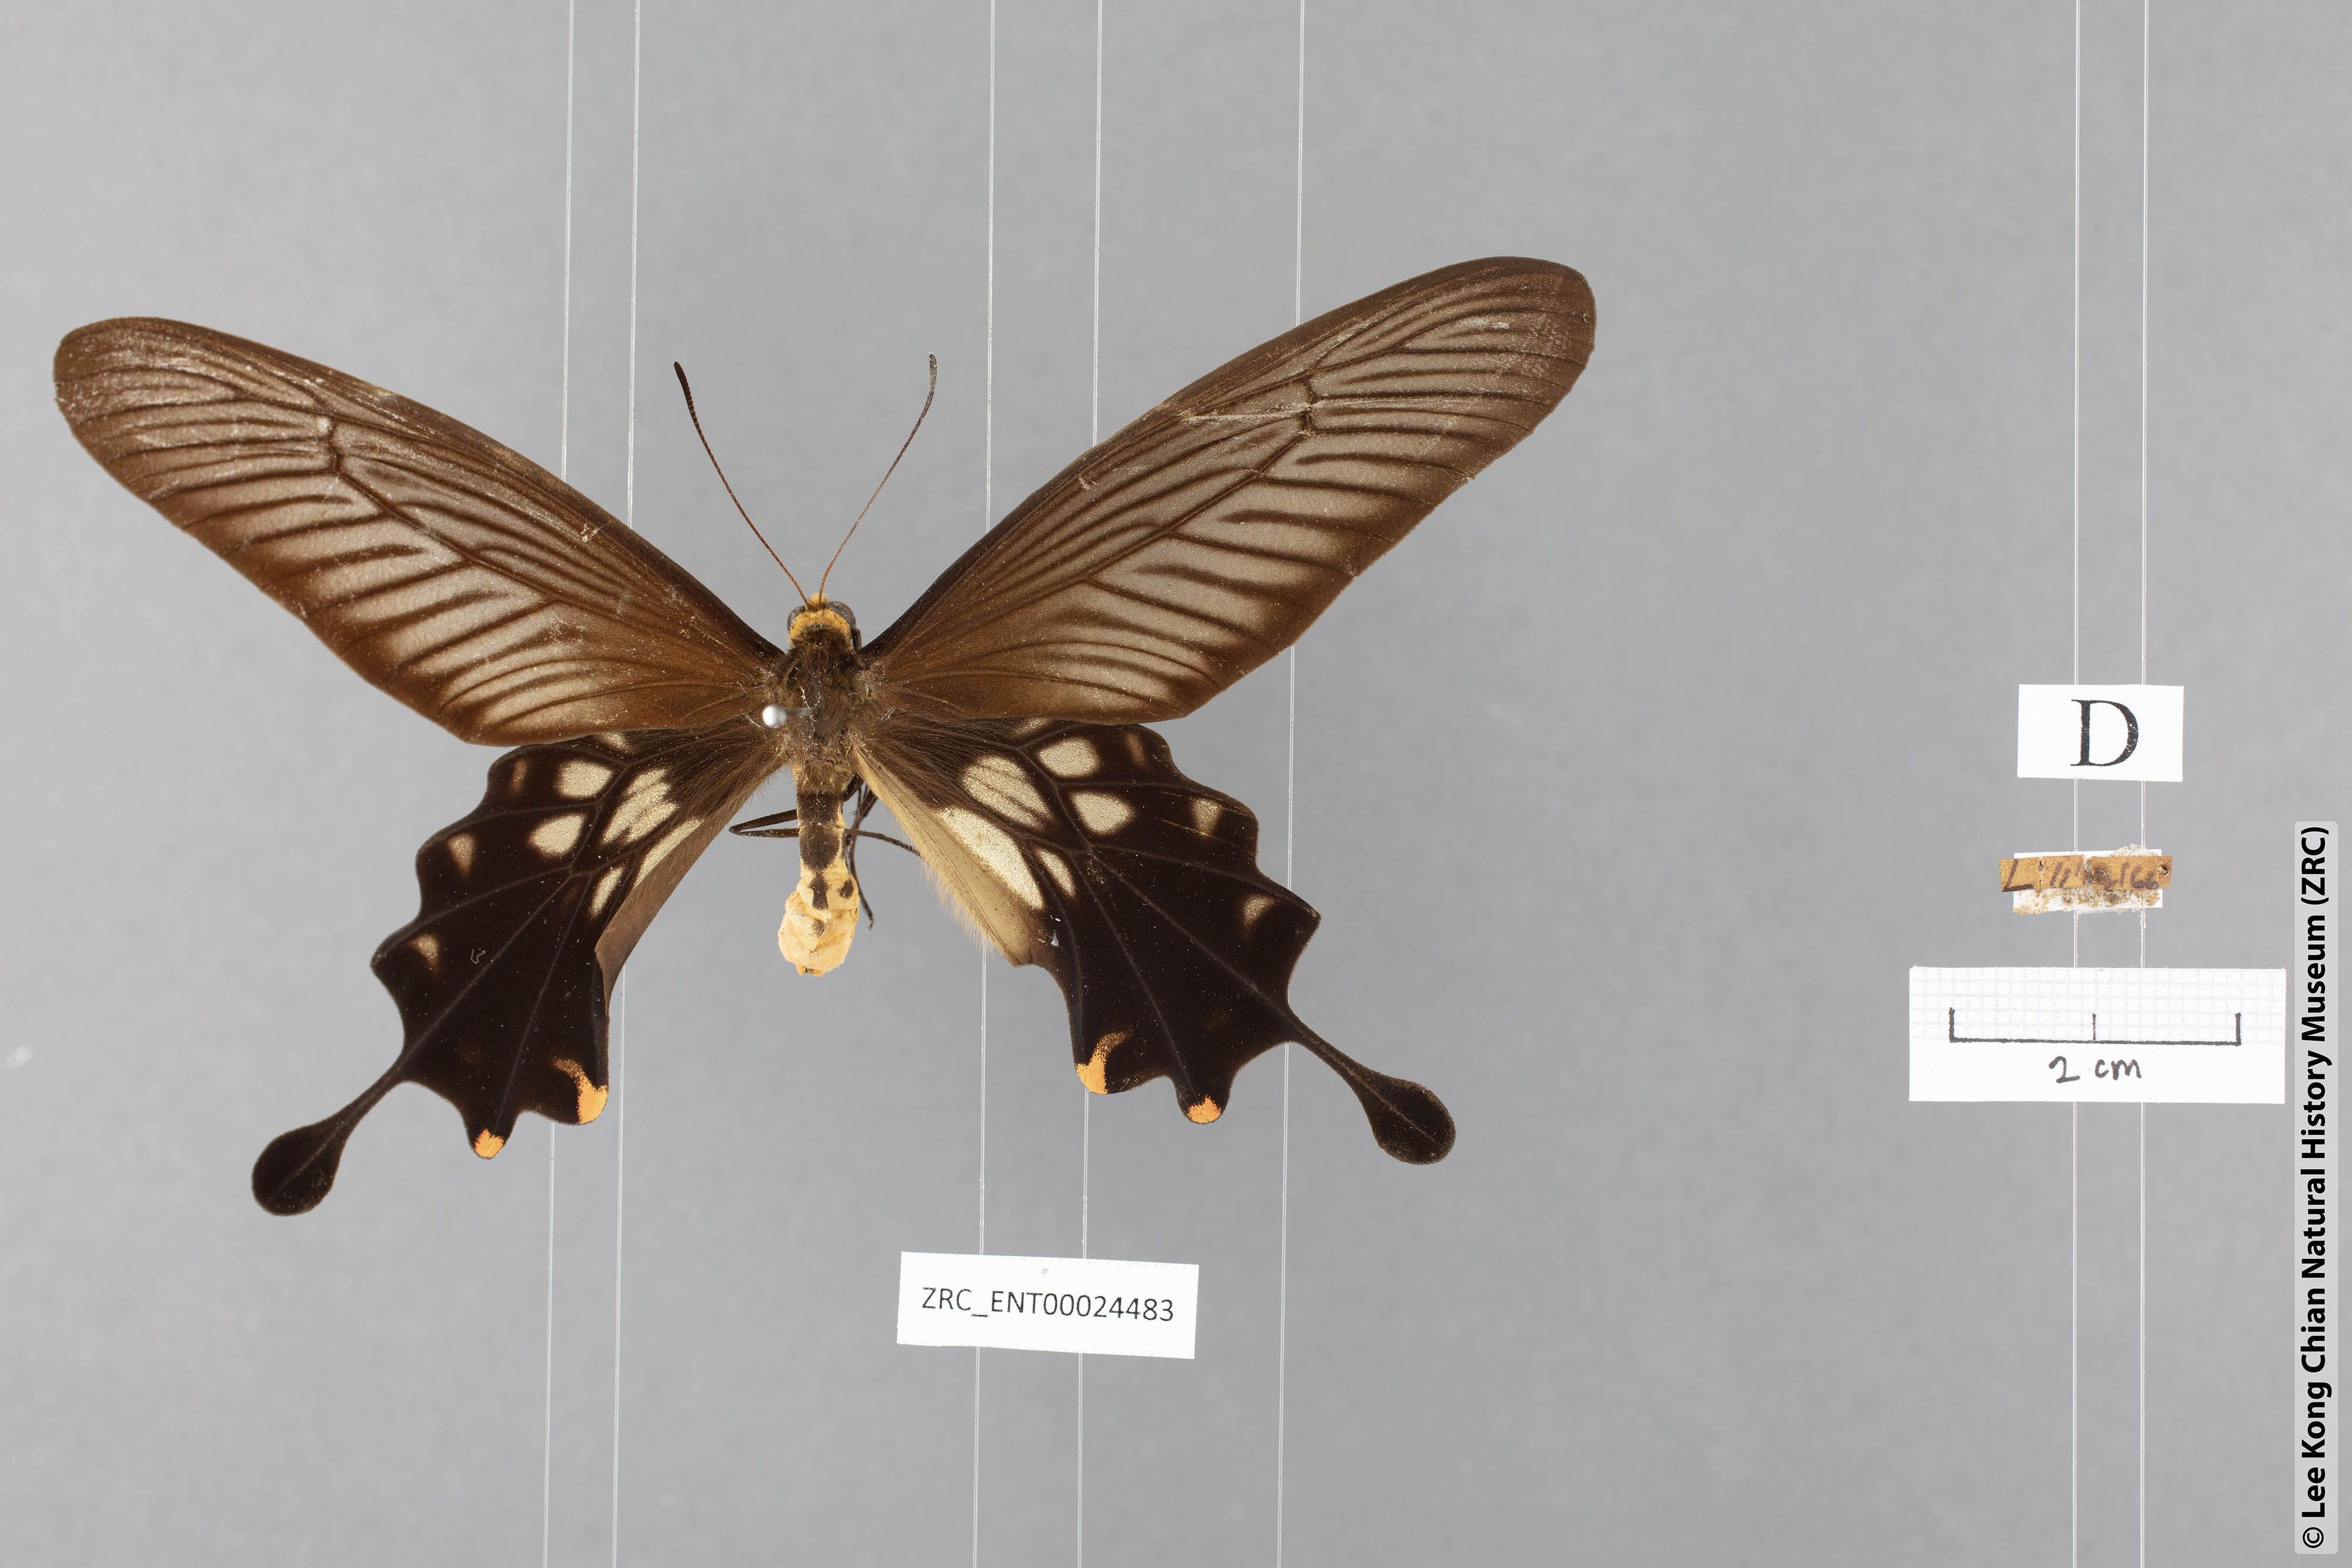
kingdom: Animalia
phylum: Arthropoda
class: Insecta
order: Lepidoptera
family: Papilionidae
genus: Losaria
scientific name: Losaria coon
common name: Common clubtail
